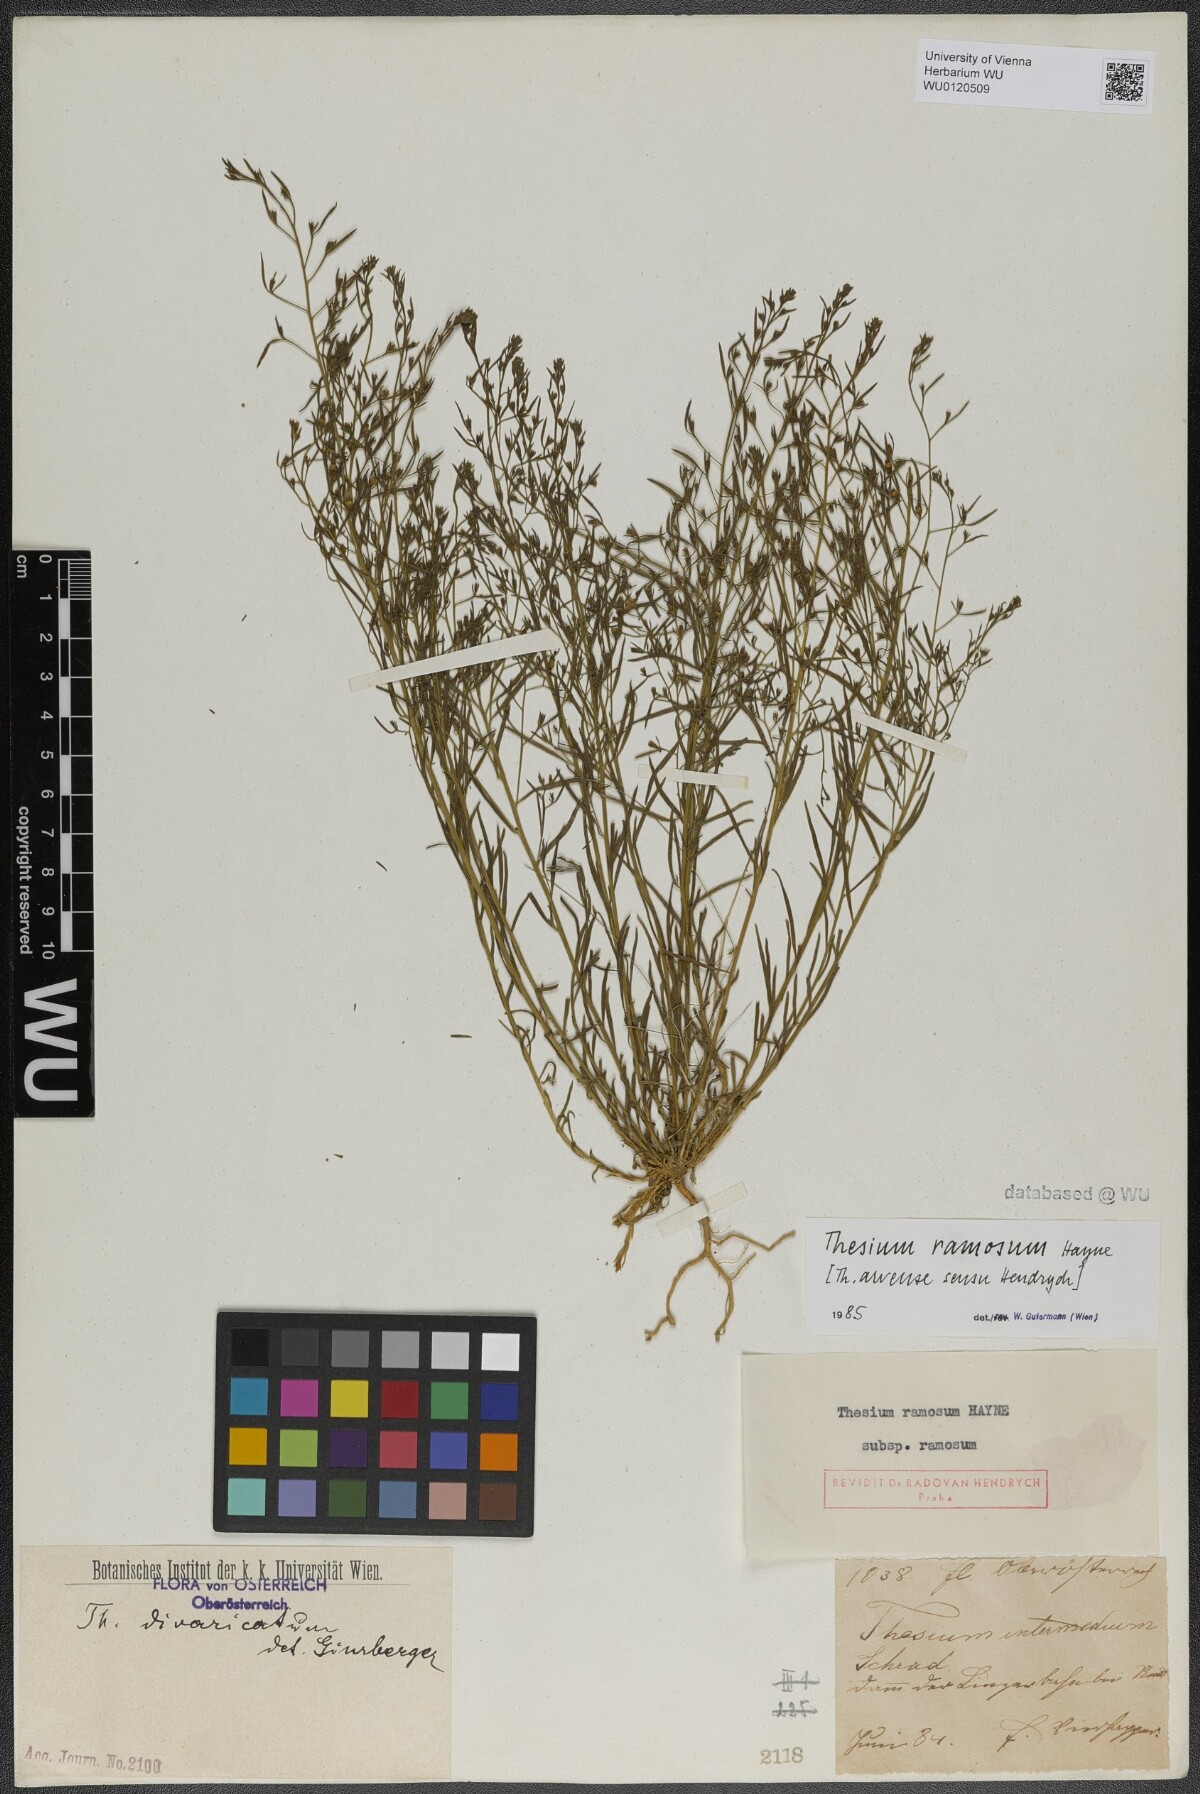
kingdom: Plantae
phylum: Tracheophyta
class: Magnoliopsida
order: Santalales
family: Thesiaceae
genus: Thesium
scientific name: Thesium ramosum
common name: Field thesium
